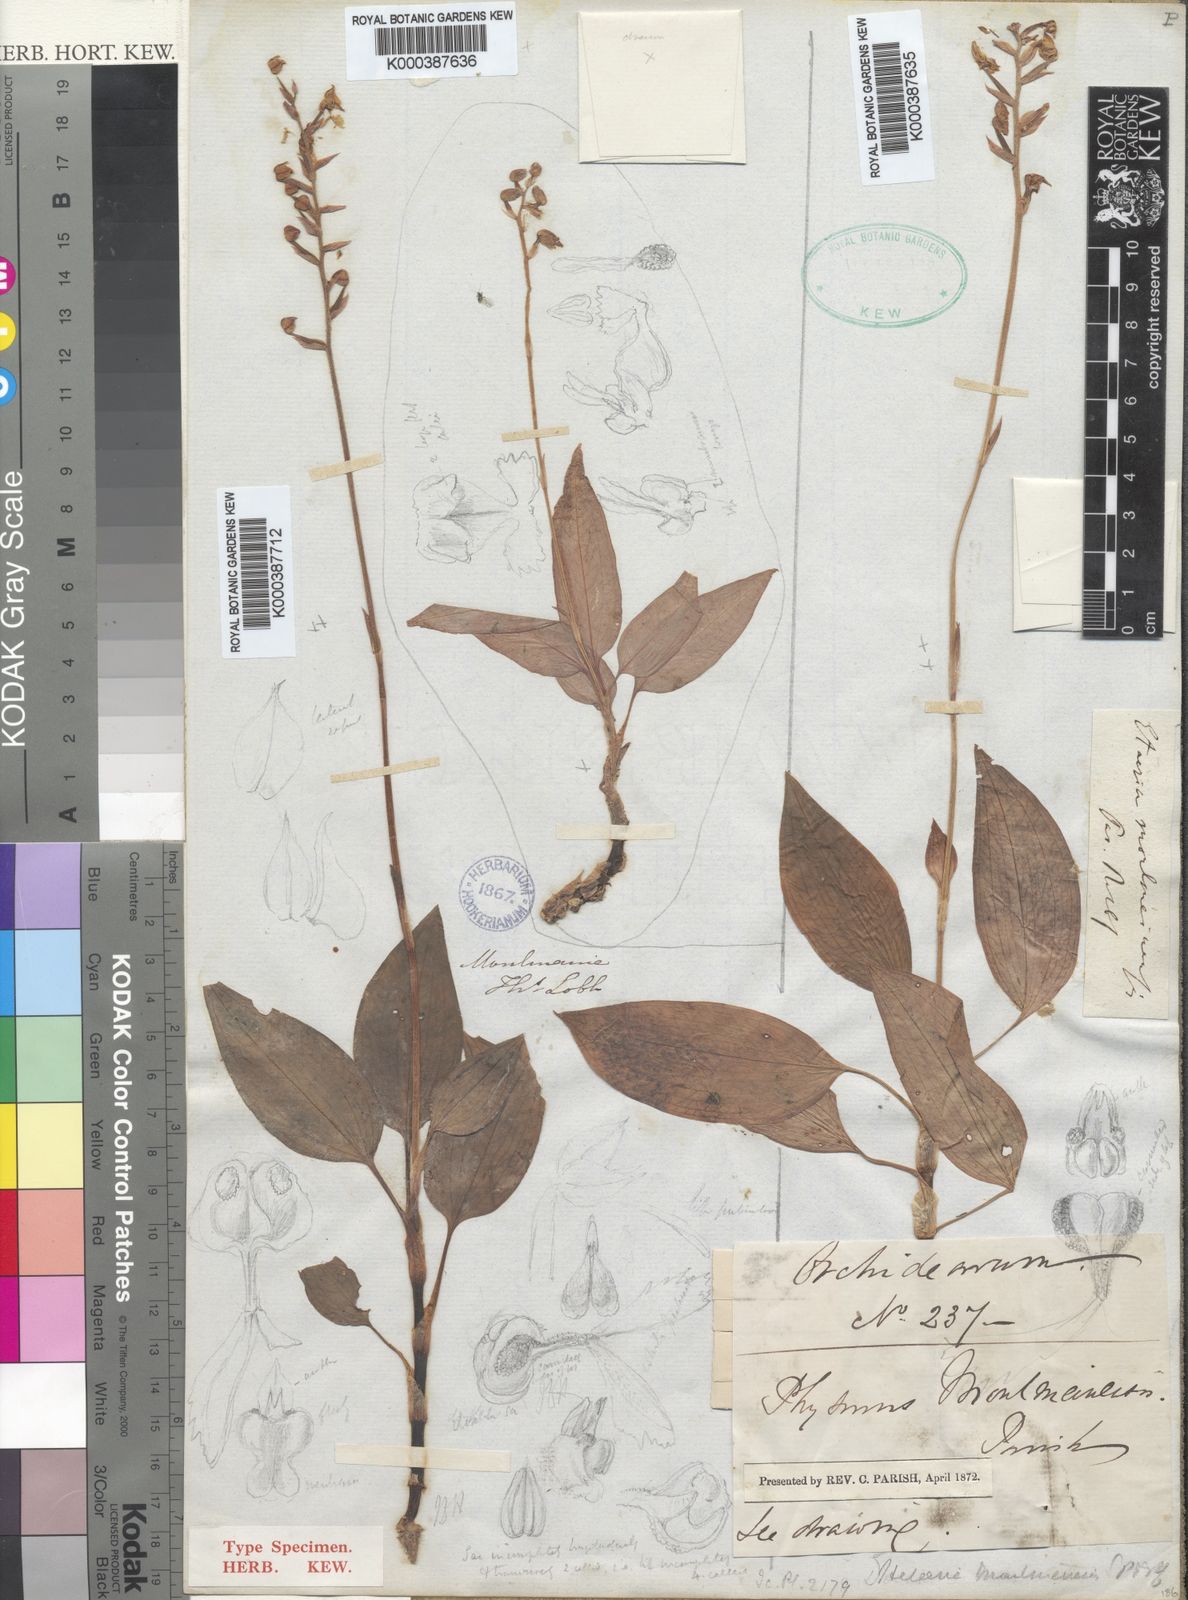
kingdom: Plantae
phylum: Tracheophyta
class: Liliopsida
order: Asparagales
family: Orchidaceae
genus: Rhomboda
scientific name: Rhomboda moulmeinensis
